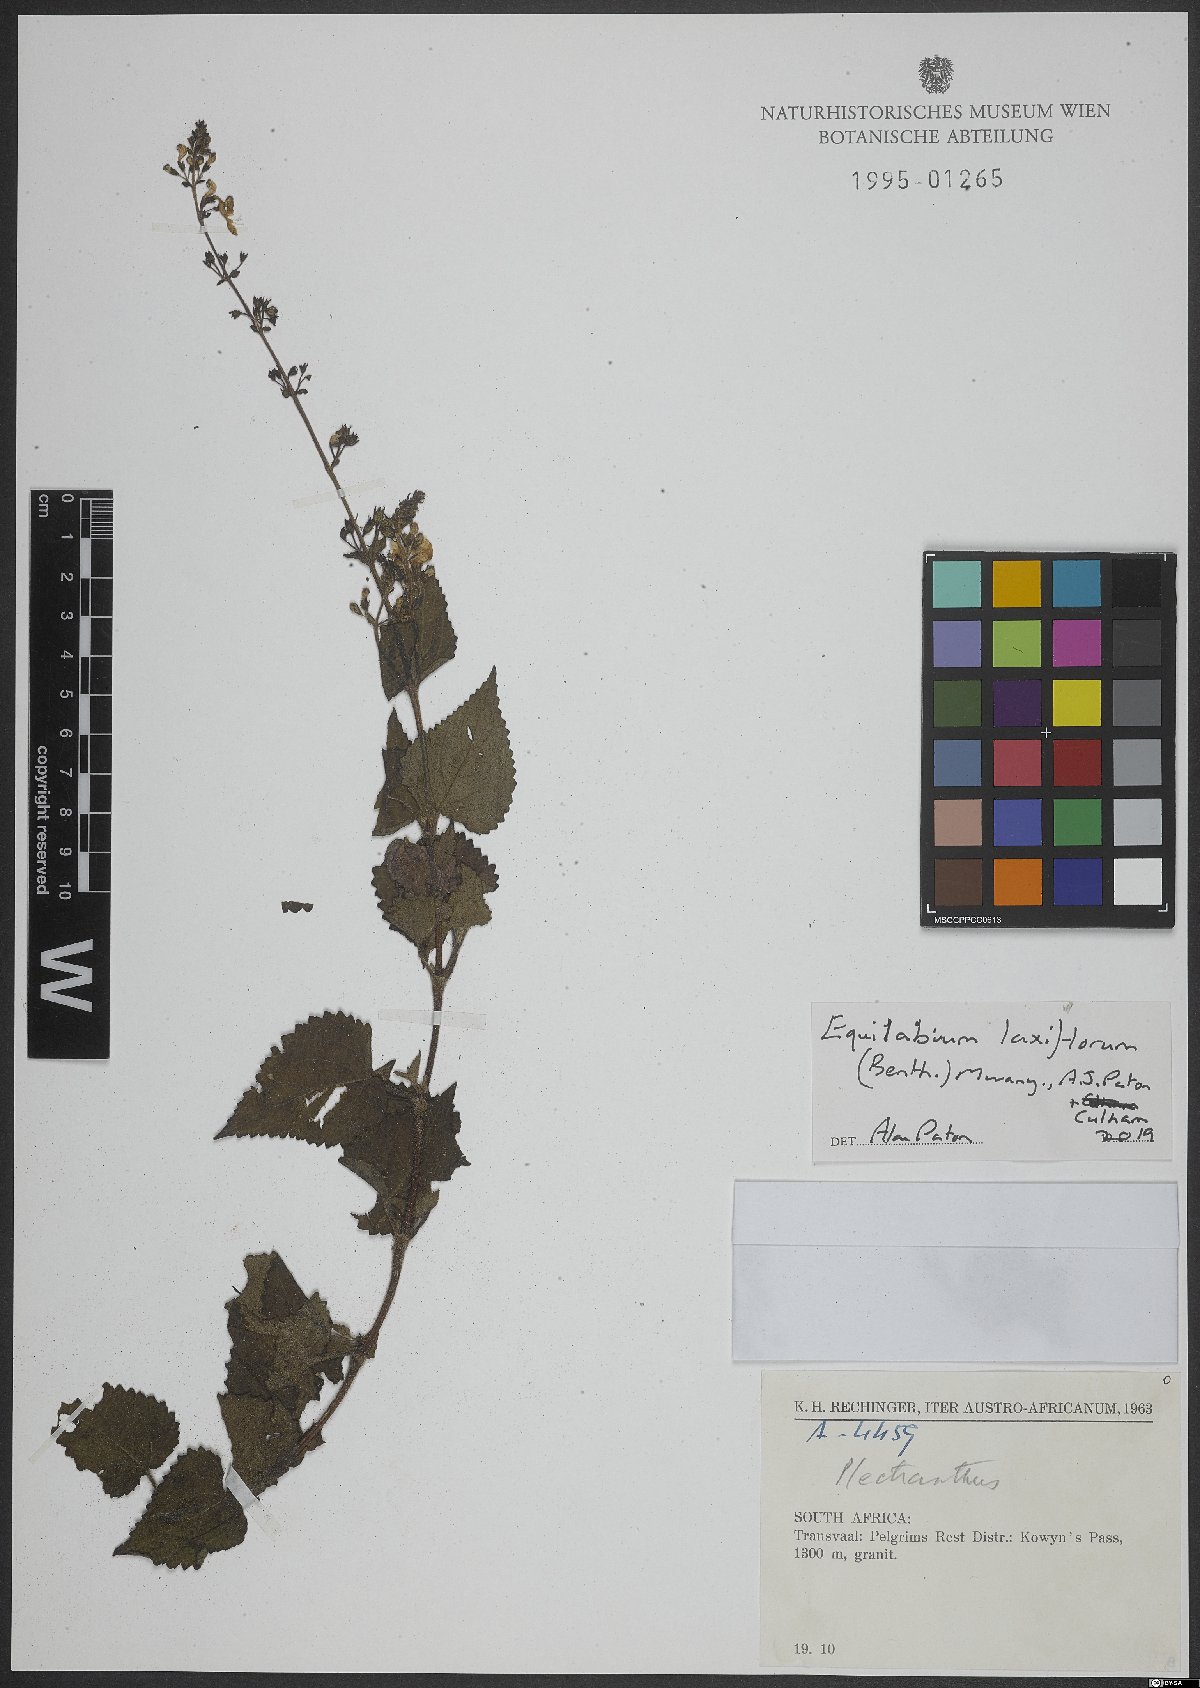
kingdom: Plantae
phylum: Tracheophyta
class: Magnoliopsida
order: Lamiales
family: Lamiaceae
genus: Equilabium
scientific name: Equilabium laxiflorum
